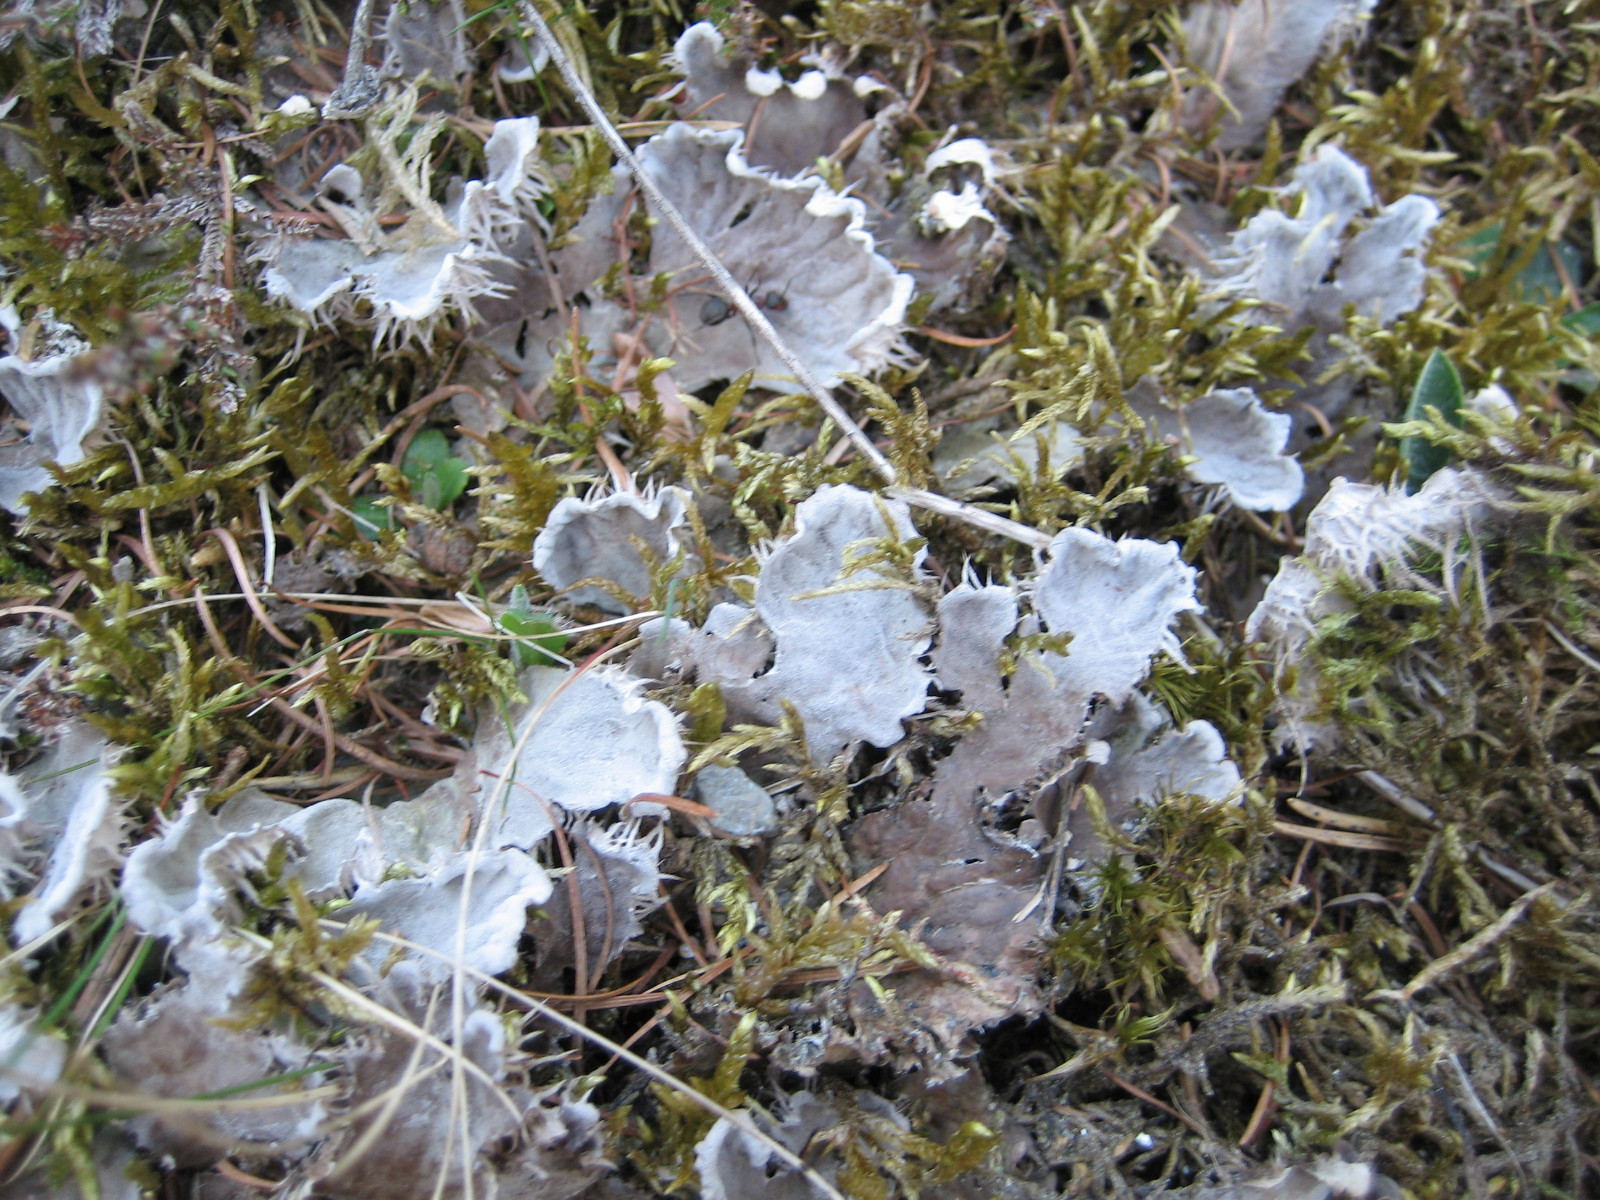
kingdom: Fungi
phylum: Ascomycota
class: Lecanoromycetes
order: Peltigerales
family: Peltigeraceae
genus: Peltigera
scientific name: Peltigera membranacea
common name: tynd skjoldlav
